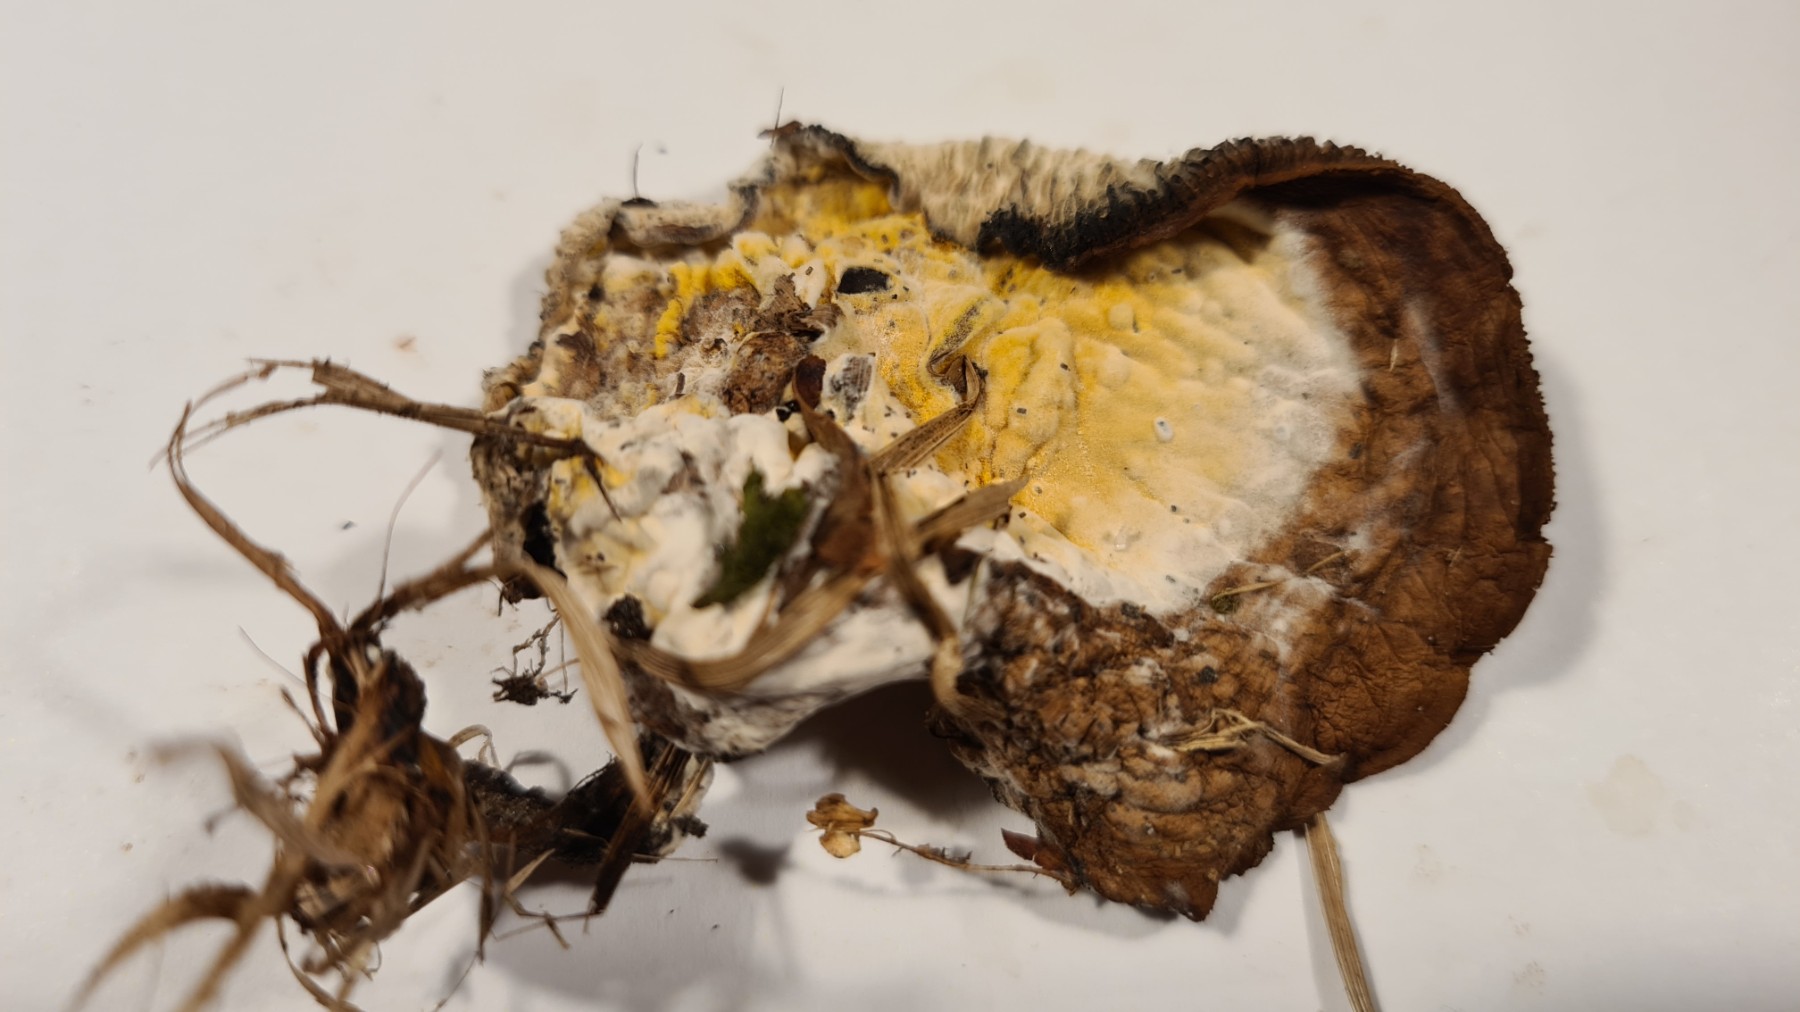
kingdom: Fungi
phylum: Ascomycota
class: Sordariomycetes
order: Hypocreales
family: Hypocreaceae
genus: Hypomyces
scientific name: Hypomyces
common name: snylteskorpe
